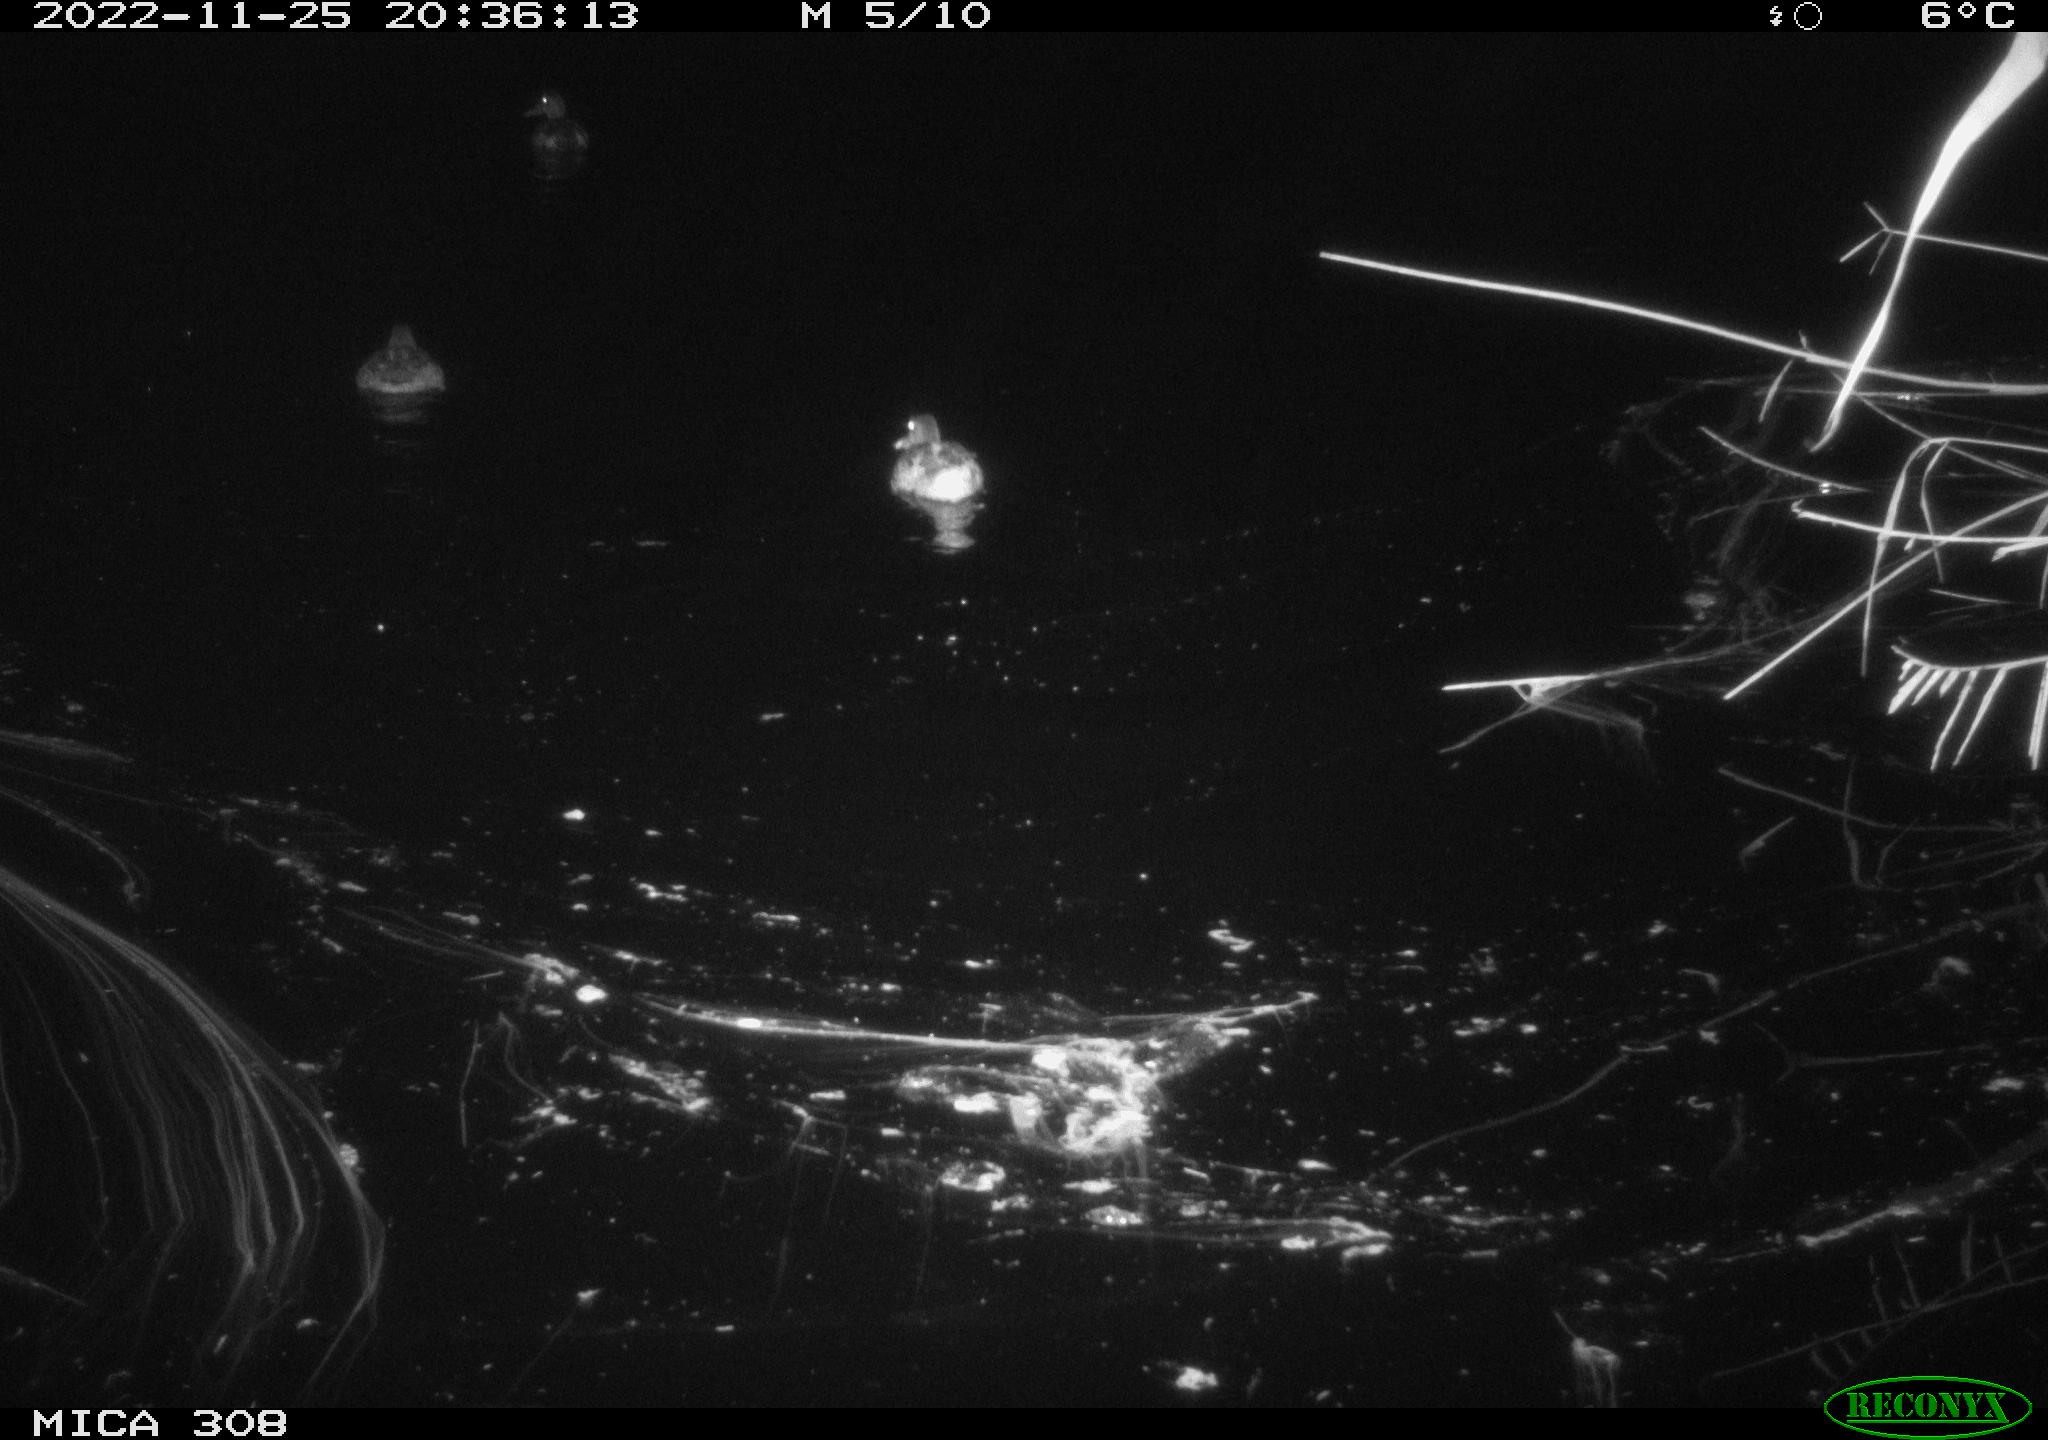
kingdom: Animalia
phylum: Chordata
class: Aves
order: Anseriformes
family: Anatidae
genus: Anas
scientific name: Anas
